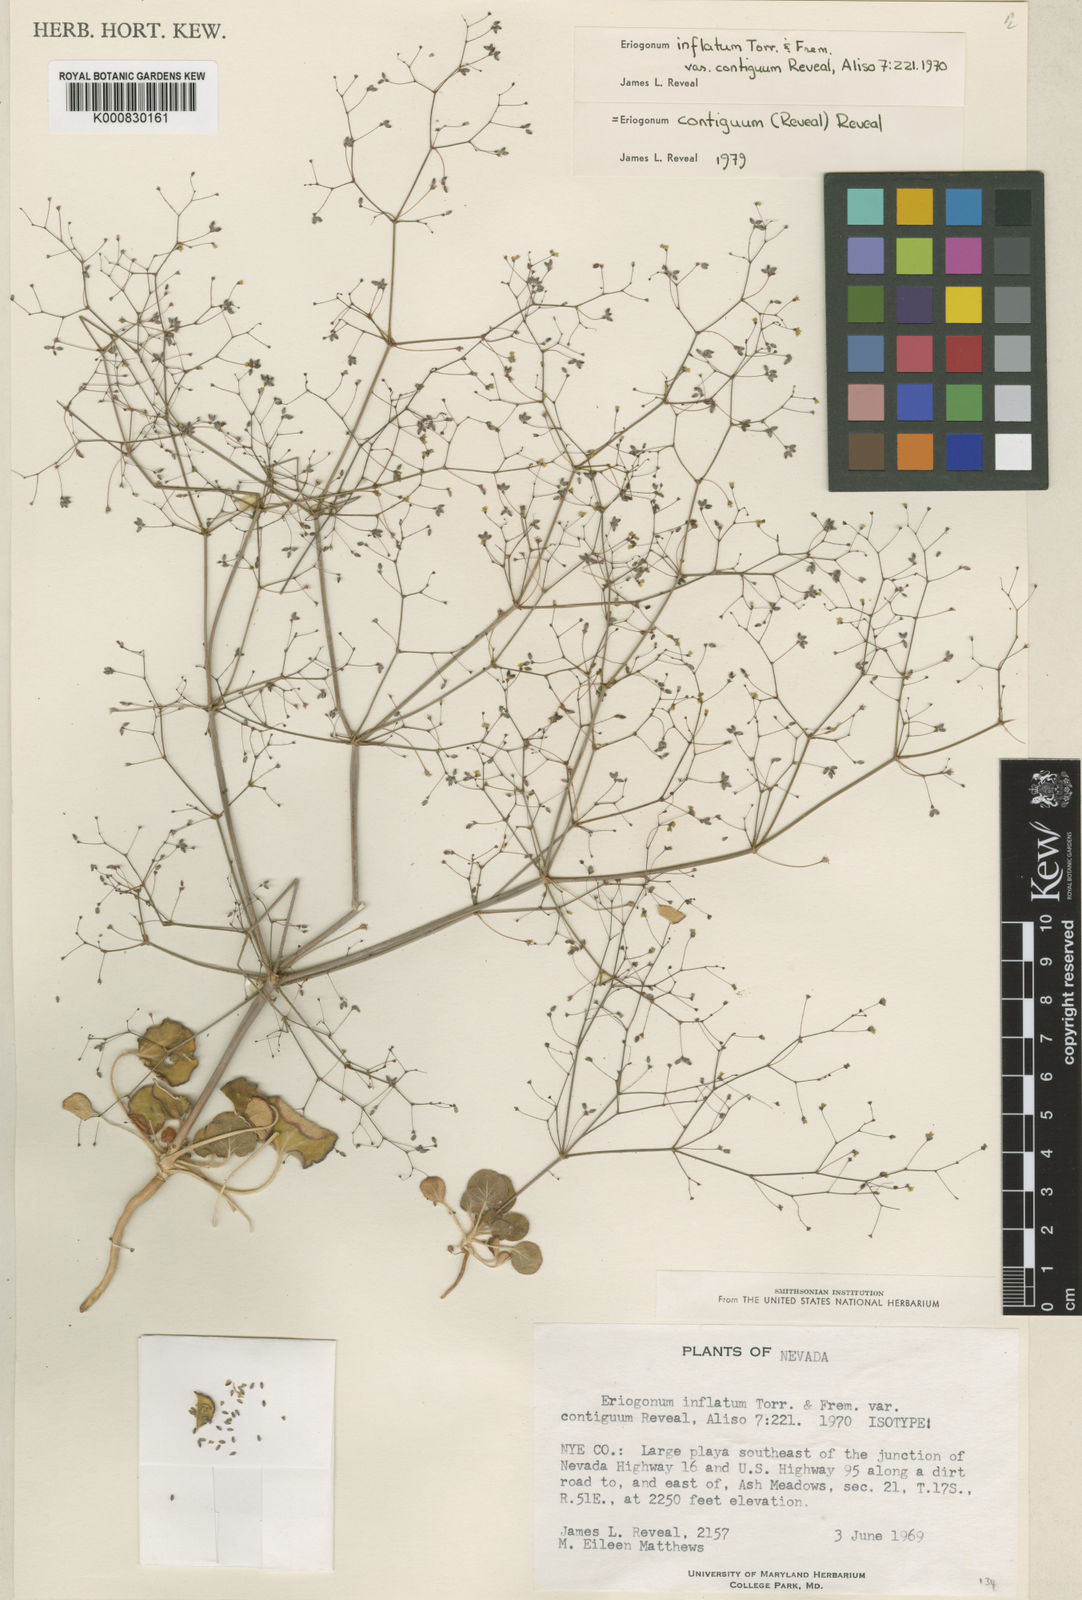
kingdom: Plantae
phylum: Tracheophyta
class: Magnoliopsida
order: Caryophyllales
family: Polygonaceae
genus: Eriogonum
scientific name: Eriogonum
